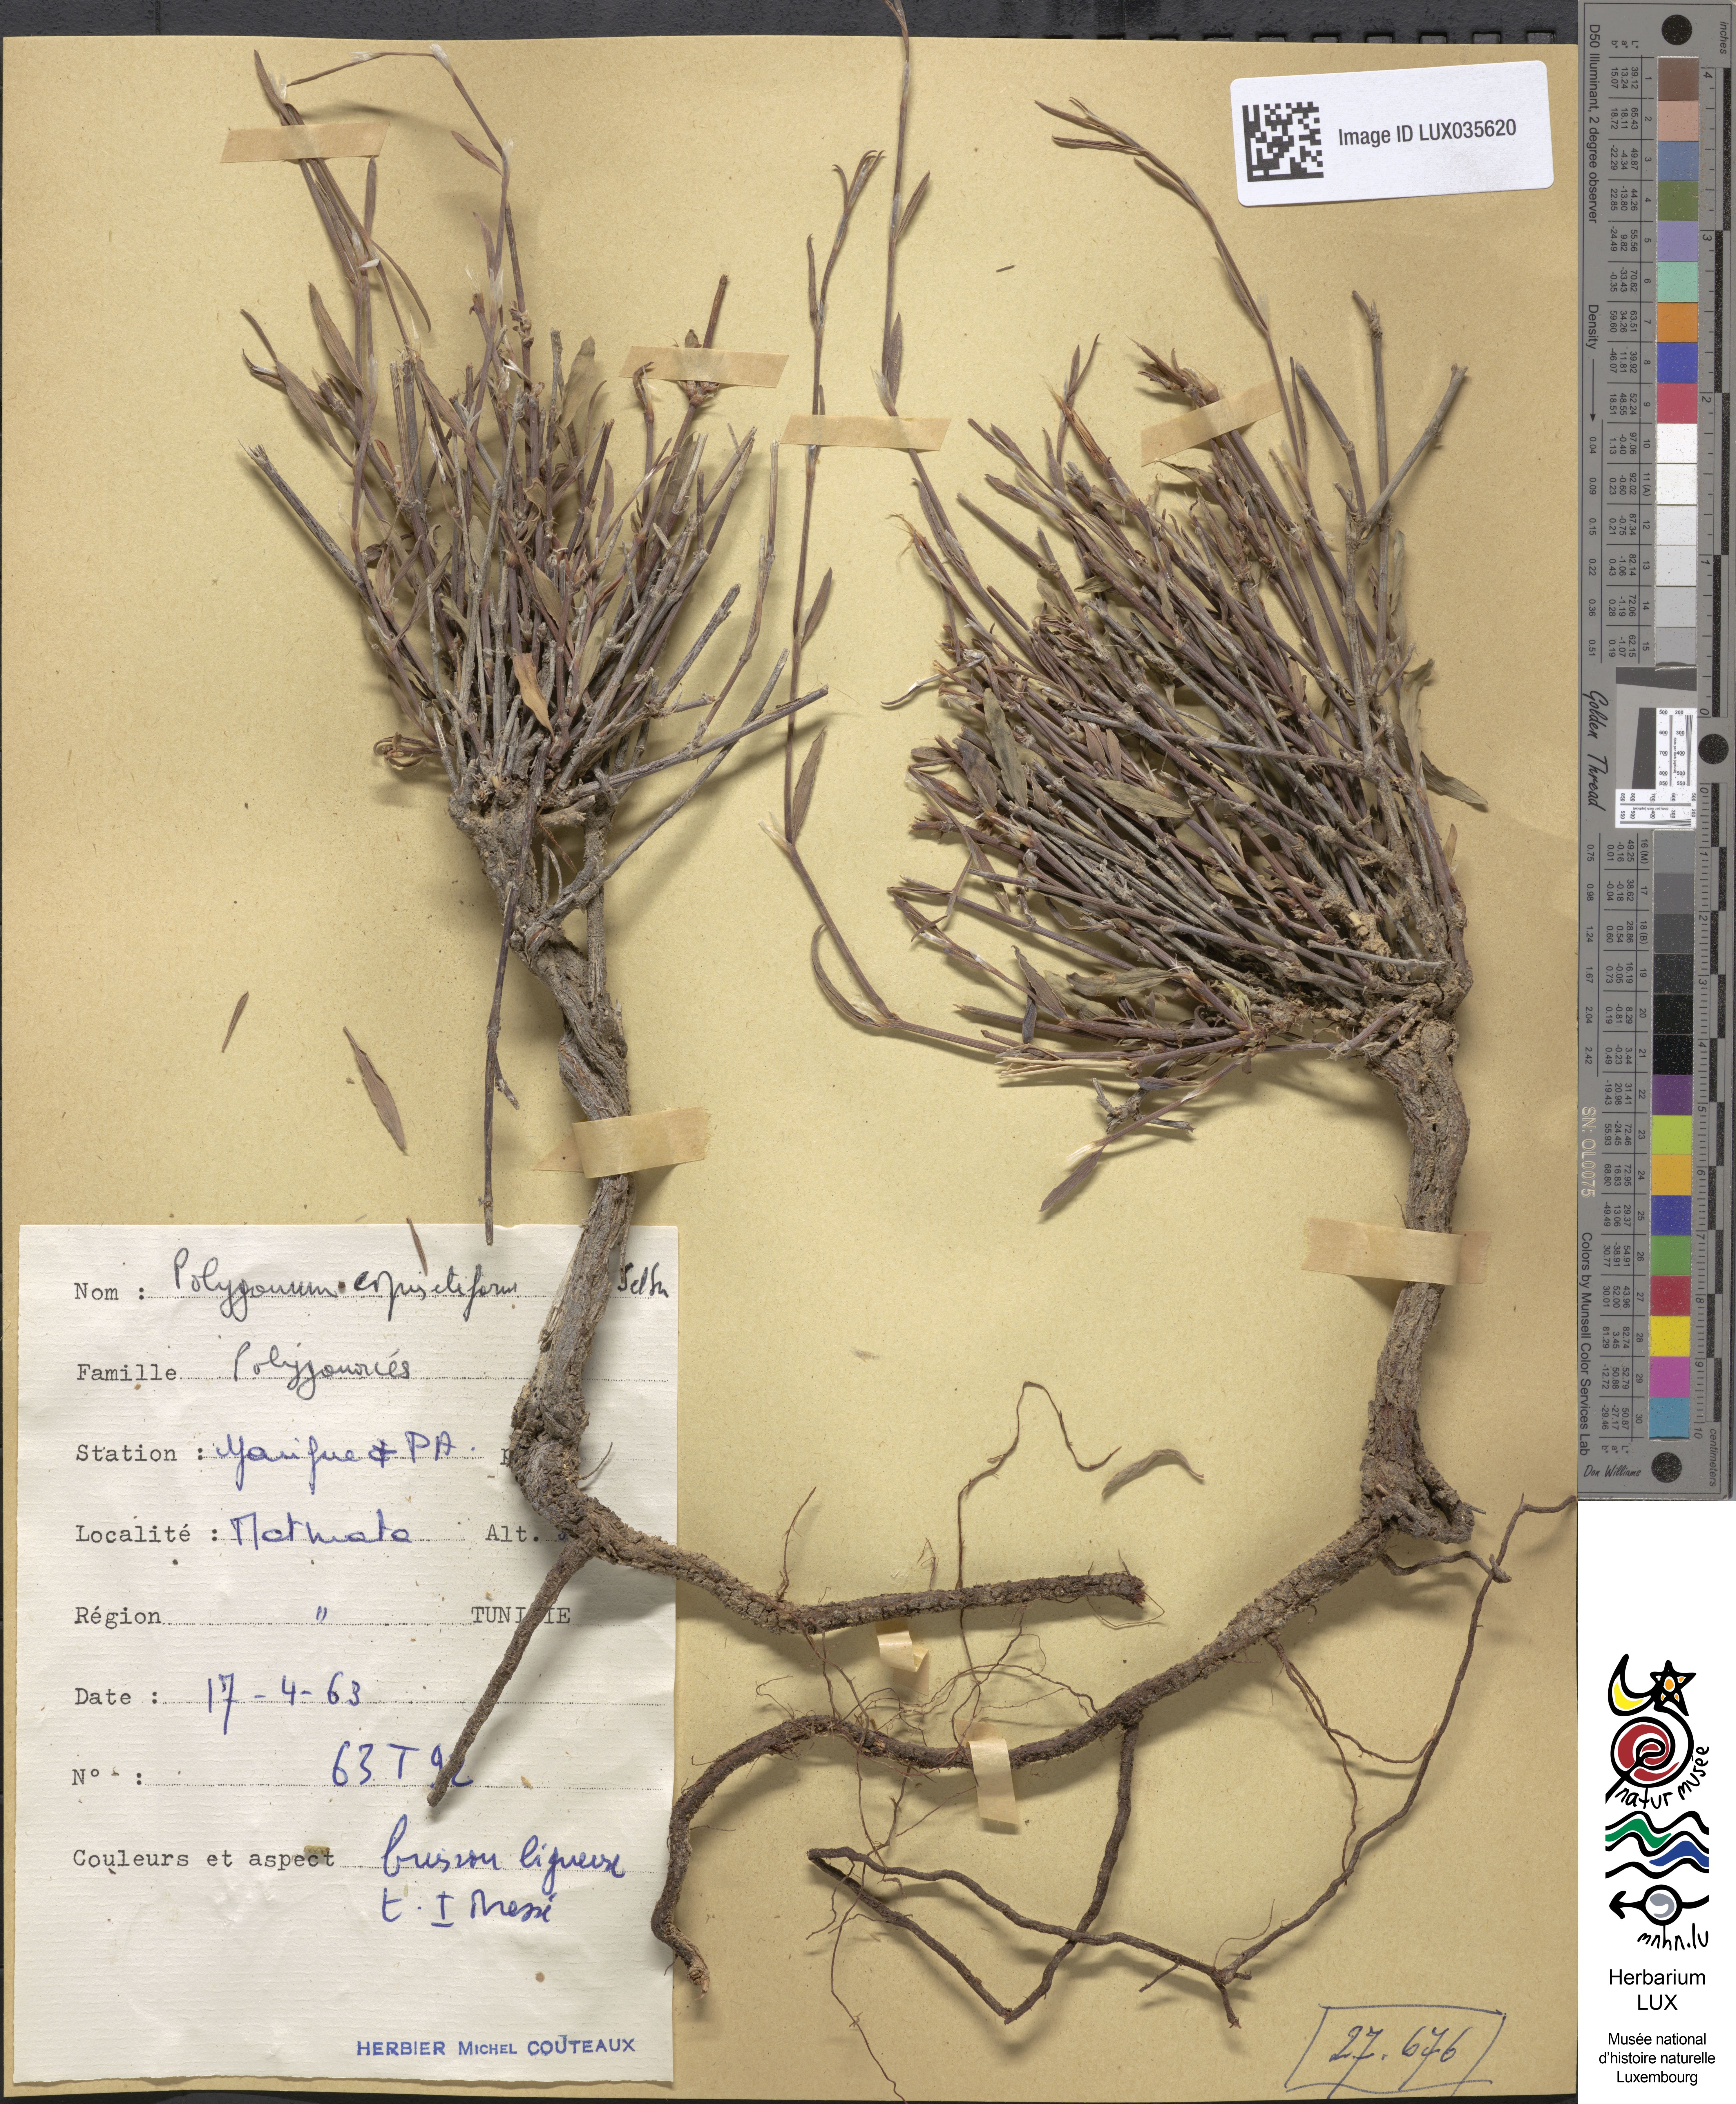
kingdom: Plantae
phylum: Tracheophyta
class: Magnoliopsida
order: Caryophyllales
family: Polygonaceae
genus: Polygonum
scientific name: Polygonum equisetiforme
